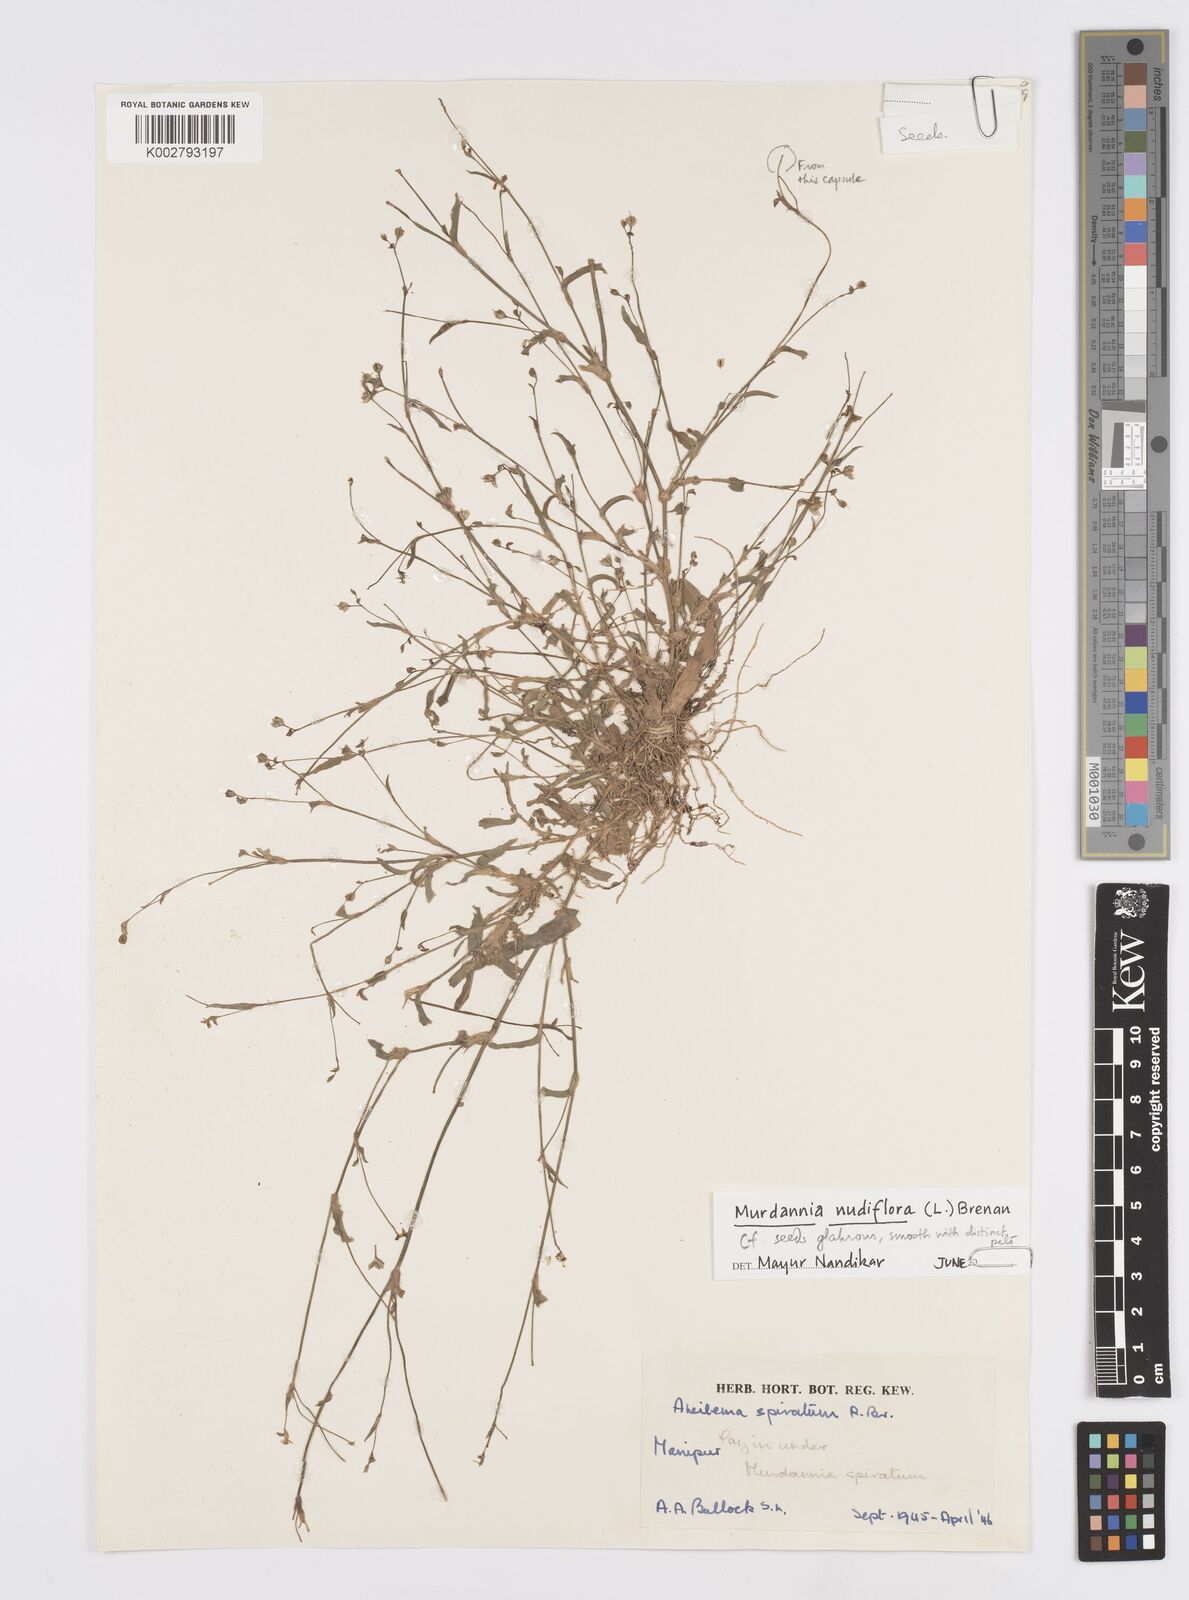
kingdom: Plantae
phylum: Tracheophyta
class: Liliopsida
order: Commelinales
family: Commelinaceae
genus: Murdannia
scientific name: Murdannia nudiflora
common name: Nakedstem dewflower
